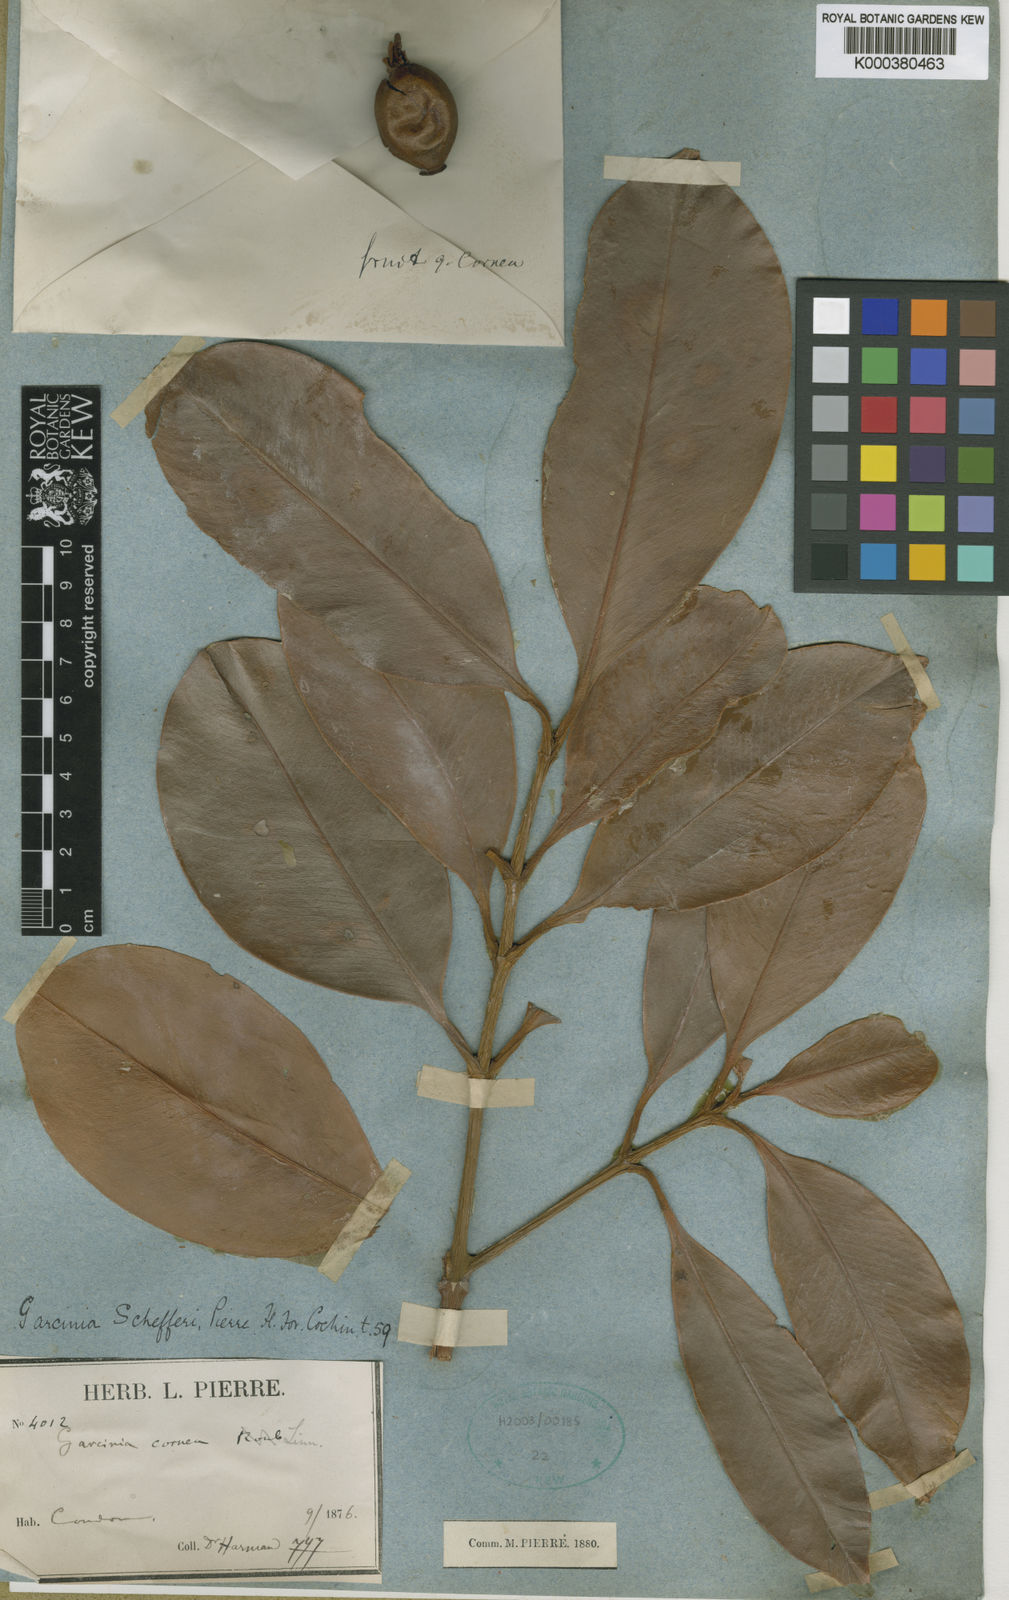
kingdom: Plantae
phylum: Tracheophyta
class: Magnoliopsida
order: Malpighiales
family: Clusiaceae
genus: Garcinia
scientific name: Garcinia rigida
